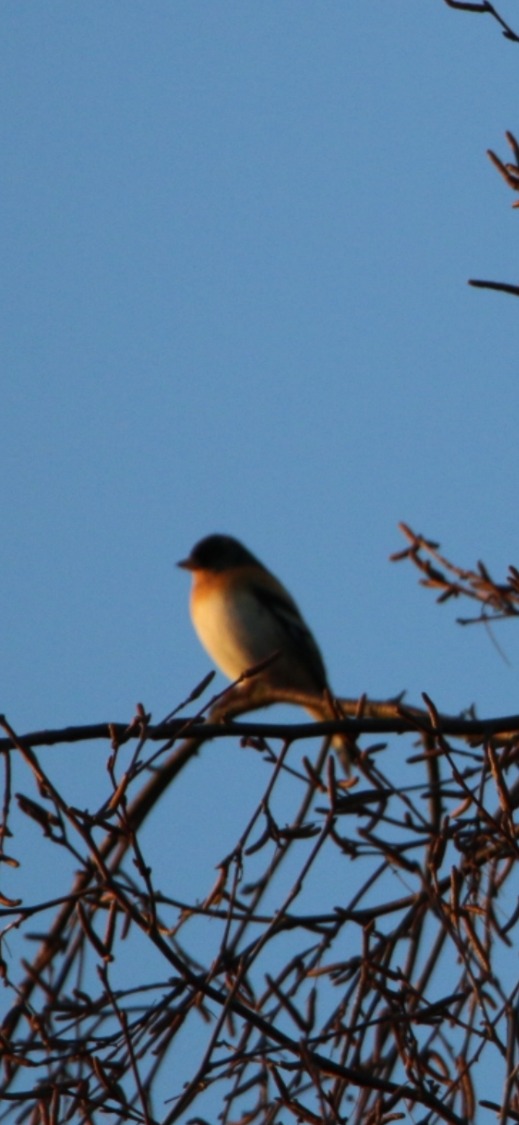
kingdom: Animalia
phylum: Chordata
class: Aves
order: Passeriformes
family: Fringillidae
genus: Fringilla
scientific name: Fringilla montifringilla
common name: Kvækerfinke
